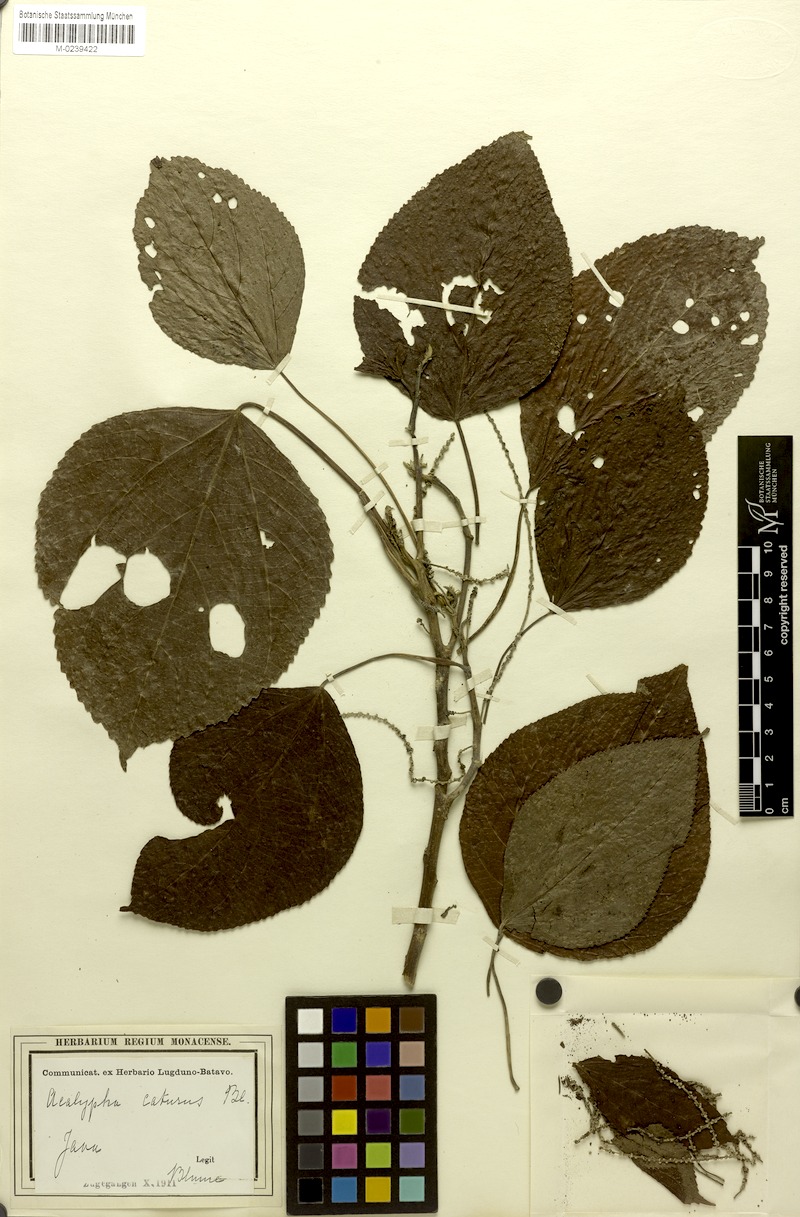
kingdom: Plantae
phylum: Tracheophyta
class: Magnoliopsida
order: Malpighiales
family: Euphorbiaceae
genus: Acalypha
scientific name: Acalypha caturus
